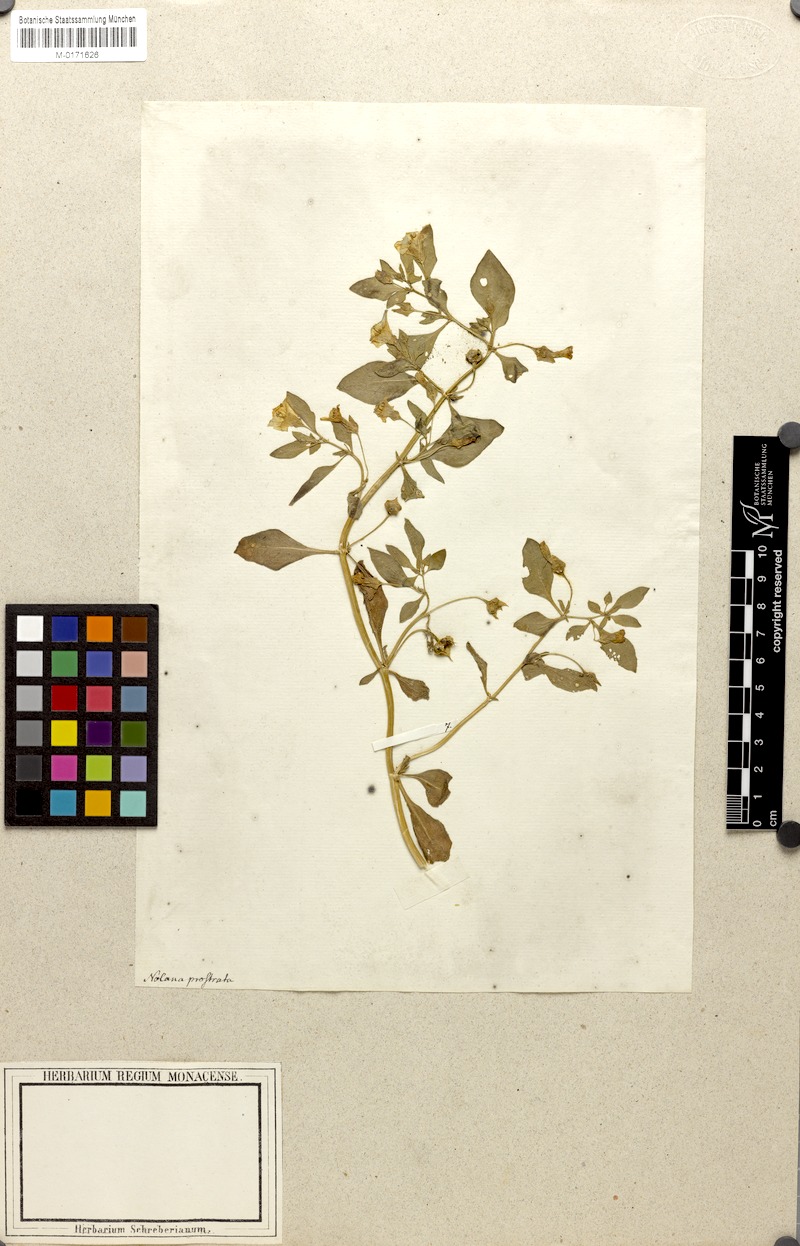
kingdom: Plantae
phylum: Tracheophyta
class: Magnoliopsida
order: Solanales
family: Solanaceae
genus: Nolana
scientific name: Nolana humifusa
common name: Trailing chilean-bellflower
